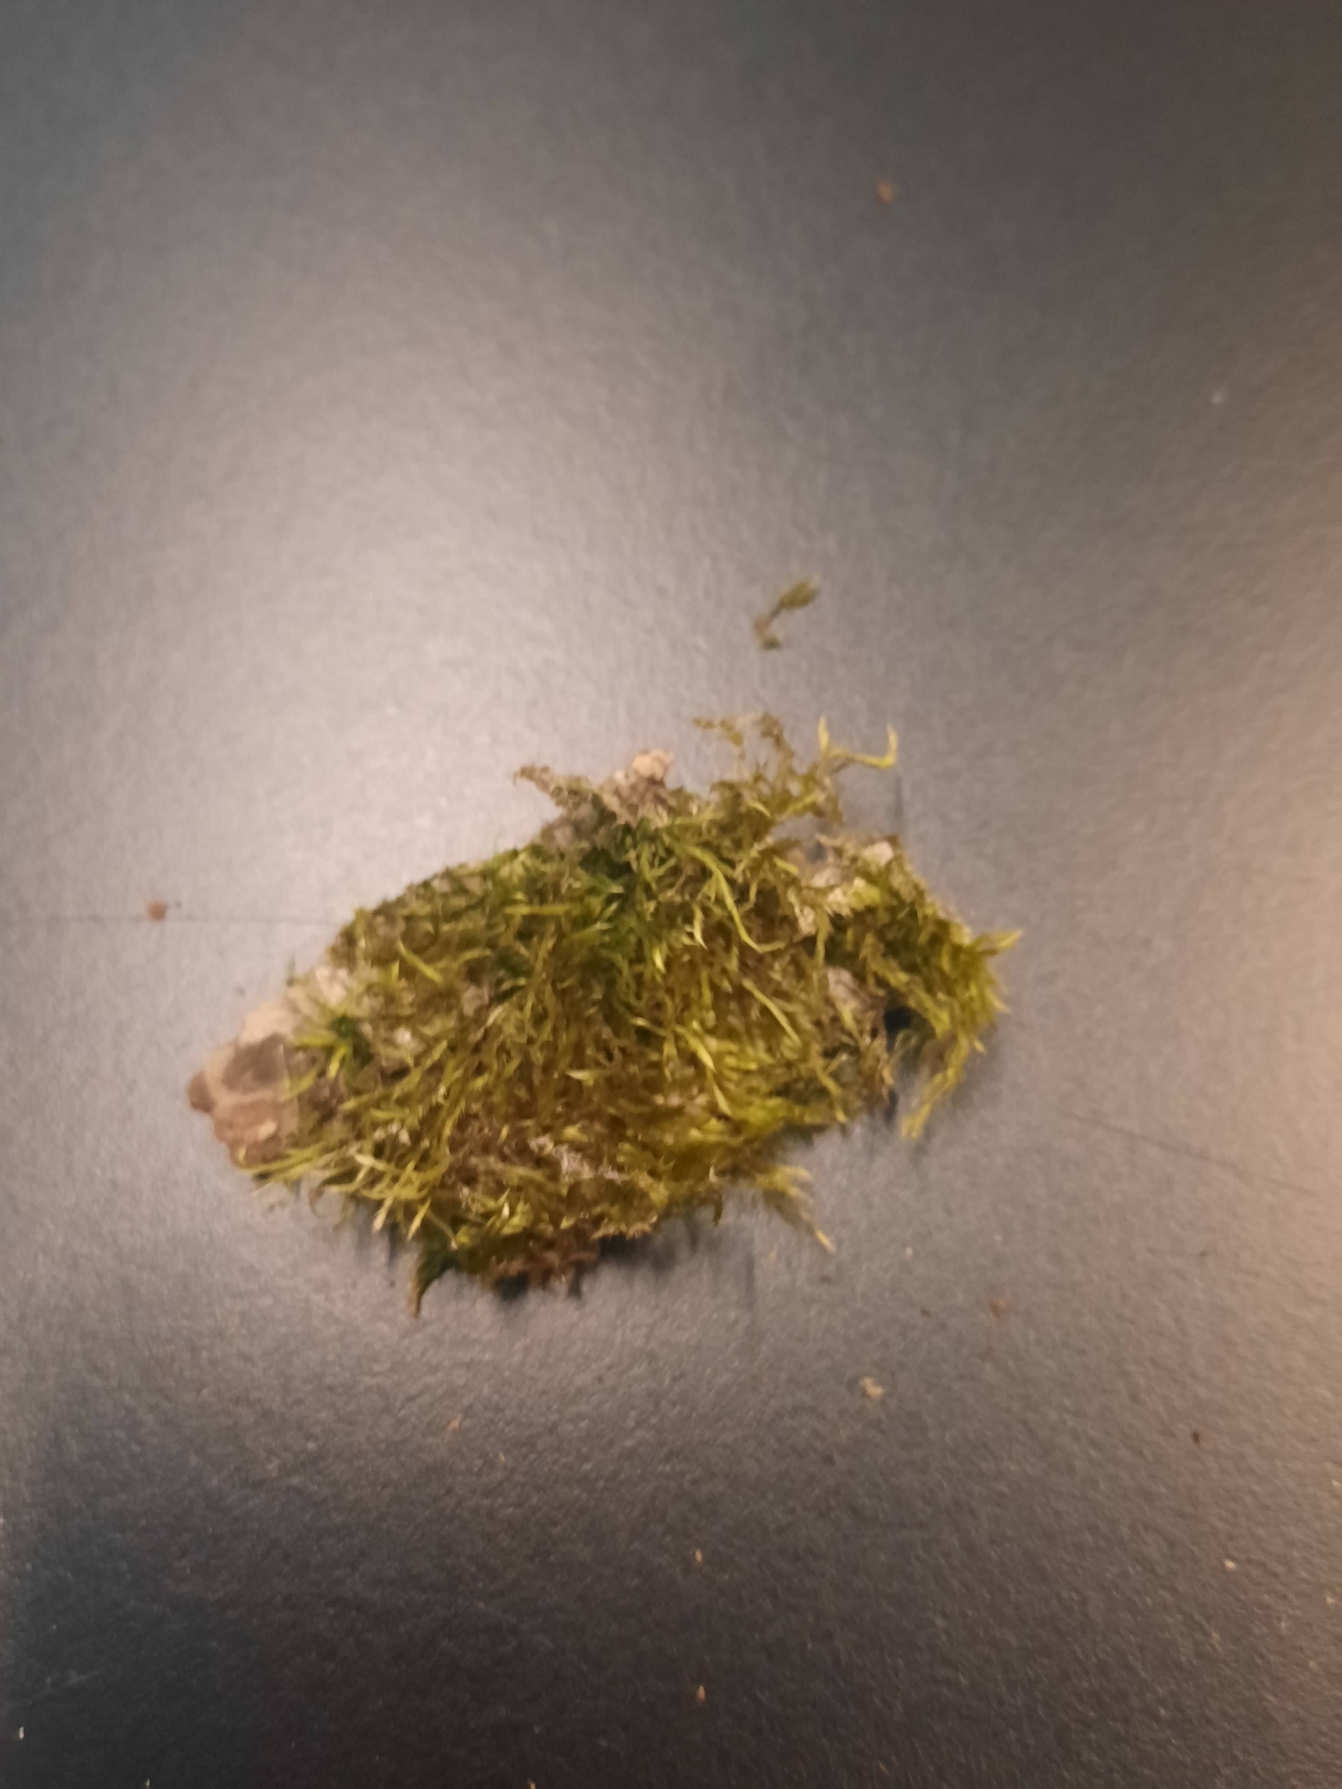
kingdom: Plantae
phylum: Bryophyta
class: Bryopsida
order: Hypnales
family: Hypnaceae
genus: Hypnum
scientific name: Hypnum
